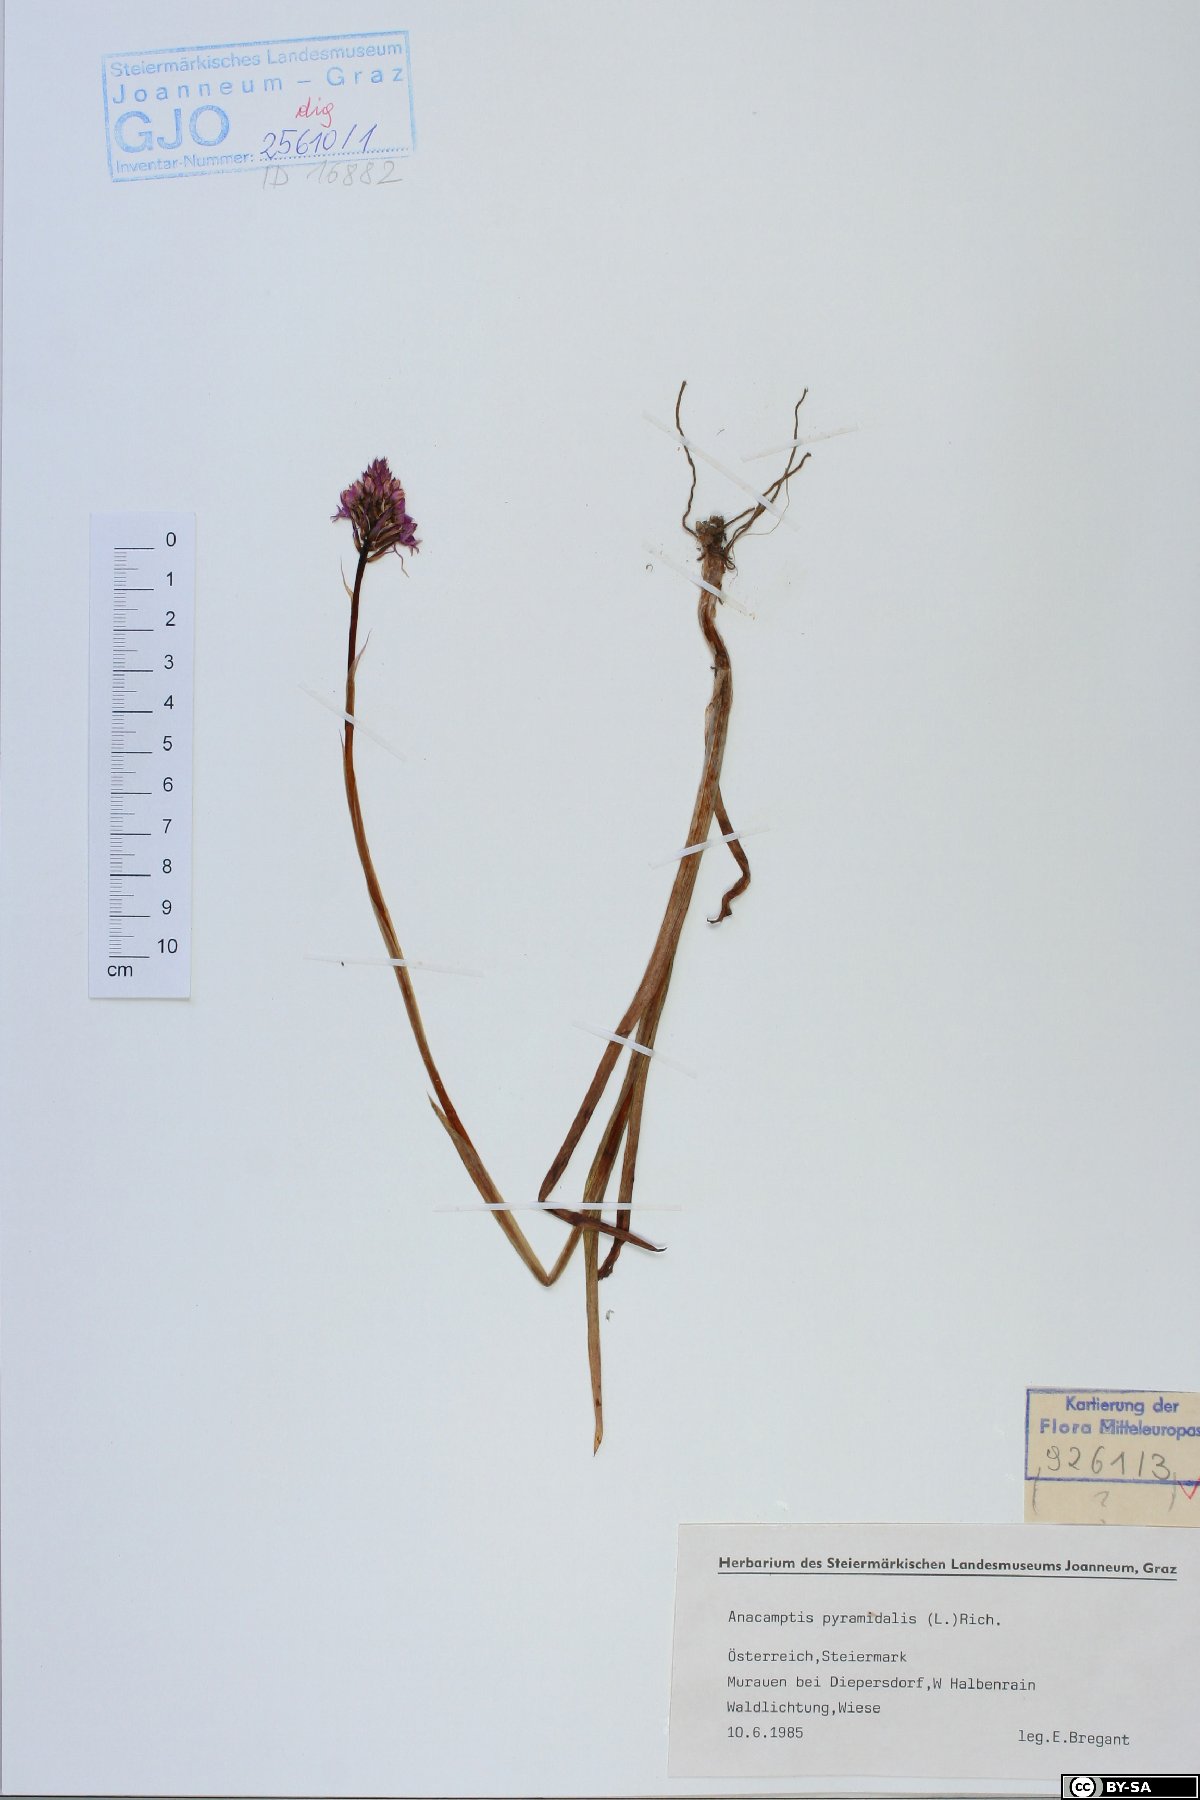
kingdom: Plantae
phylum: Tracheophyta
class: Liliopsida
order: Asparagales
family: Orchidaceae
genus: Anacamptis
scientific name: Anacamptis pyramidalis
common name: Pyramidal orchid
